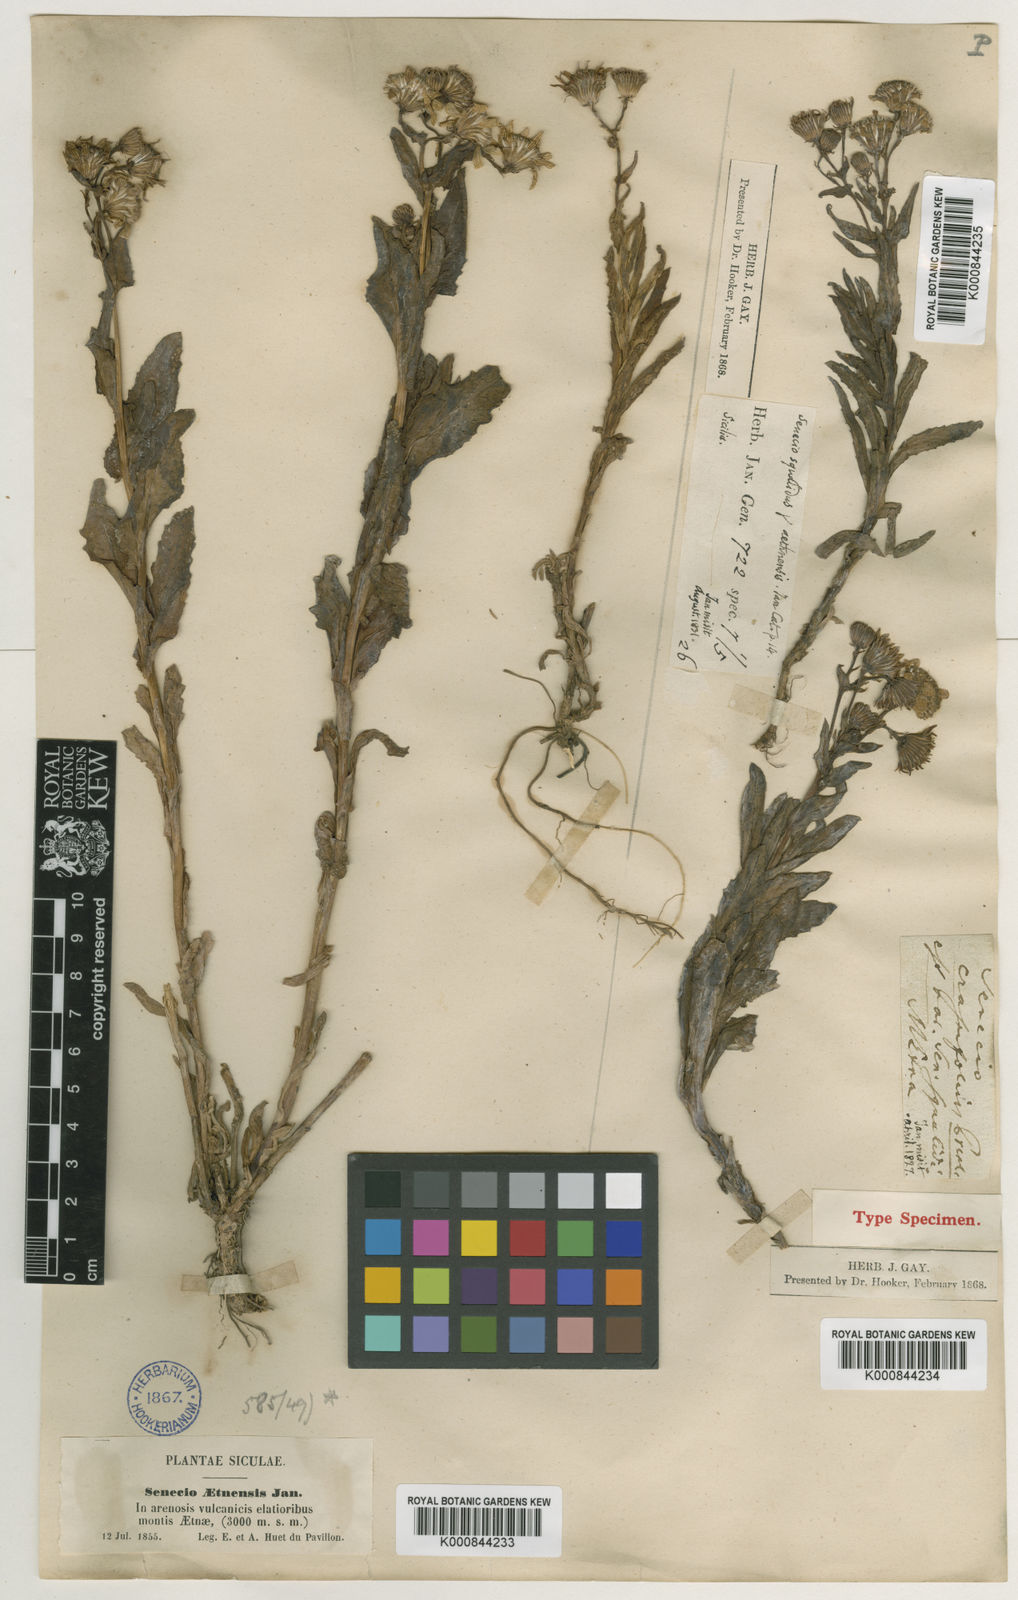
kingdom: Plantae
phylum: Tracheophyta
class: Magnoliopsida
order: Asterales
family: Asteraceae
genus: Senecio
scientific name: Senecio squalidus
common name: Oxford ragwort
